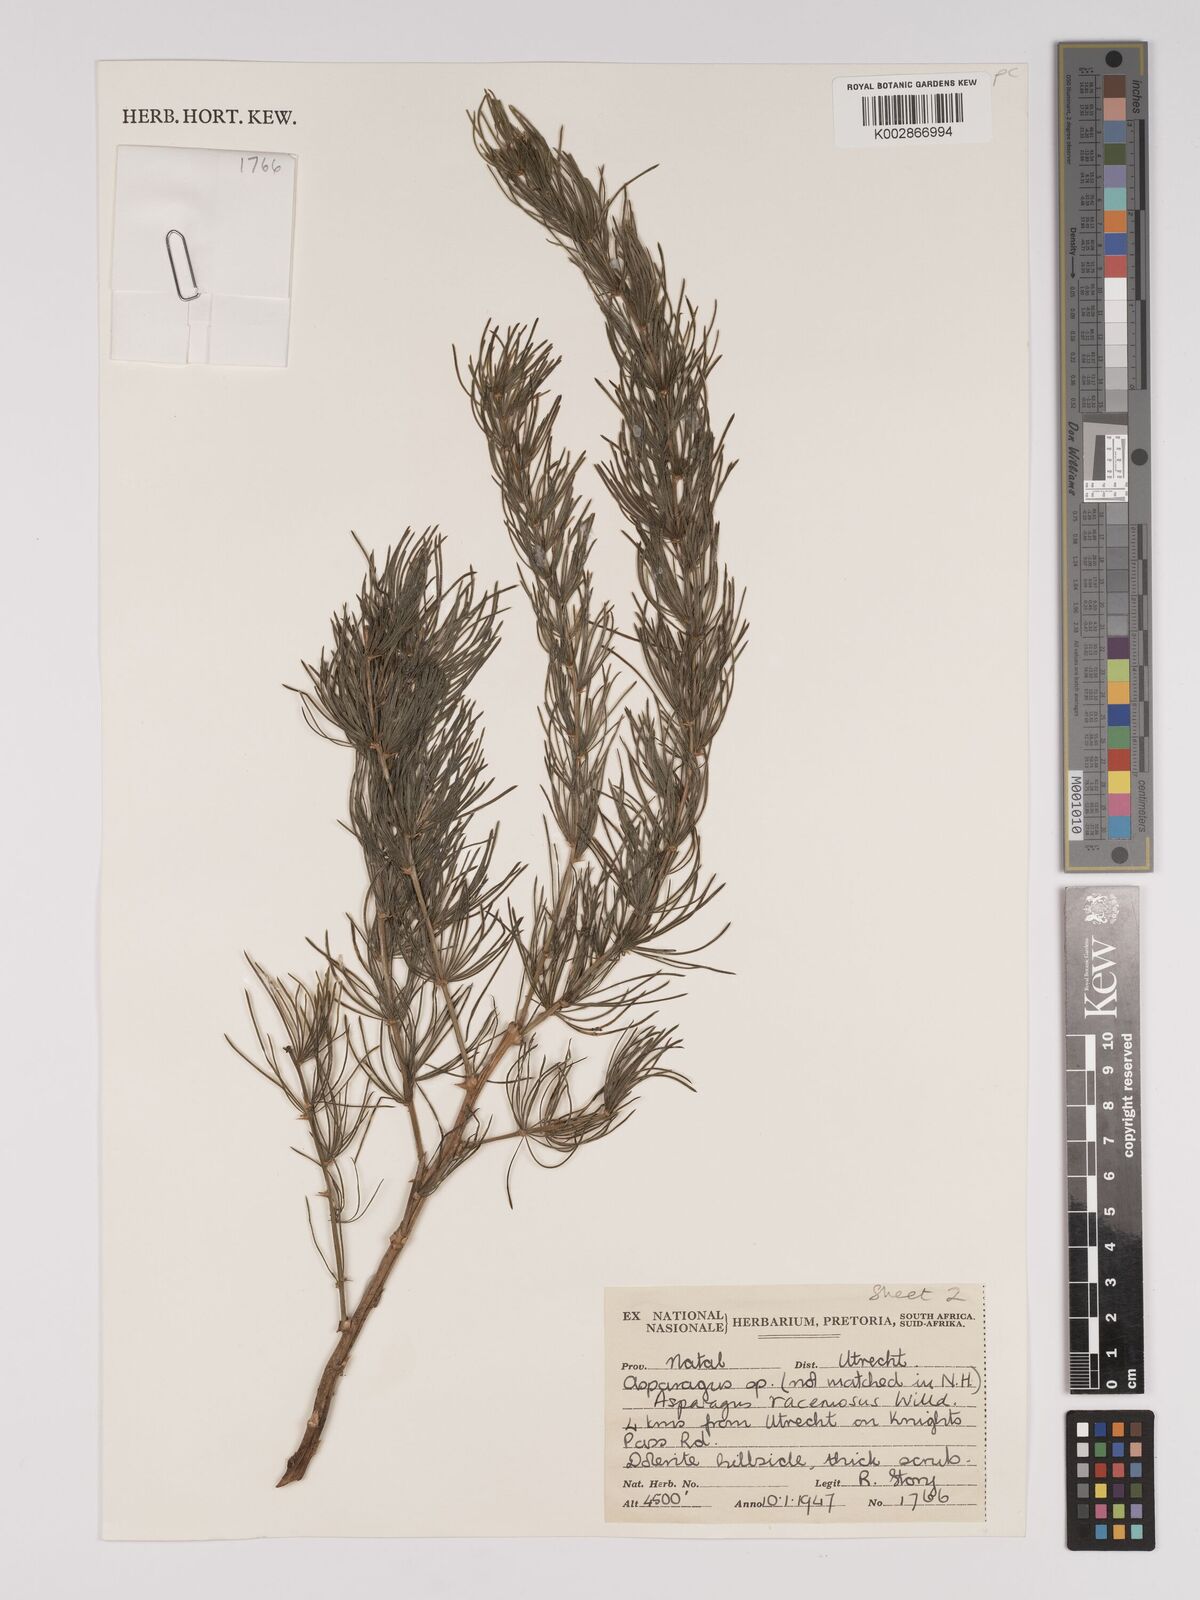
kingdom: Plantae
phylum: Tracheophyta
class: Liliopsida
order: Asparagales
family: Asparagaceae
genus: Asparagus
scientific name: Asparagus racemosus
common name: Asparagus-fern
